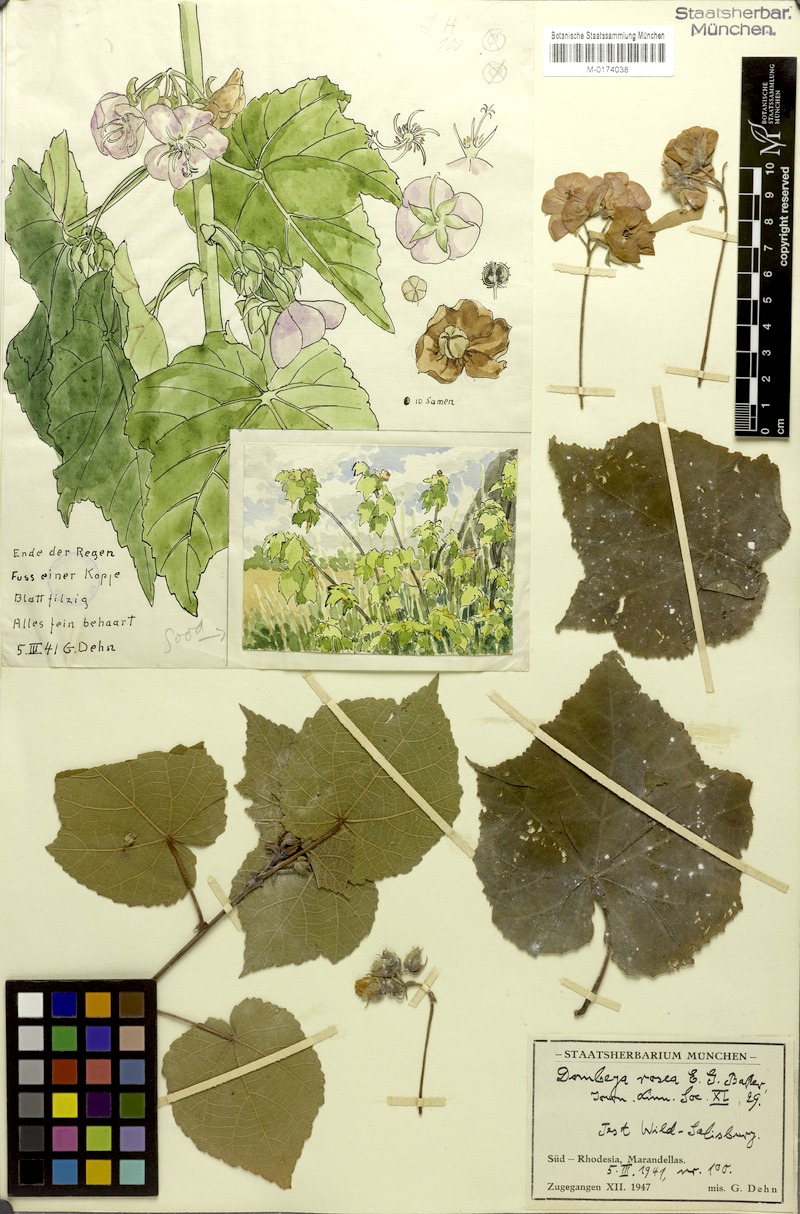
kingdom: Plantae
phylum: Tracheophyta
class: Magnoliopsida
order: Malvales
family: Malvaceae
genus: Dombeya
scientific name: Dombeya burgessiae
